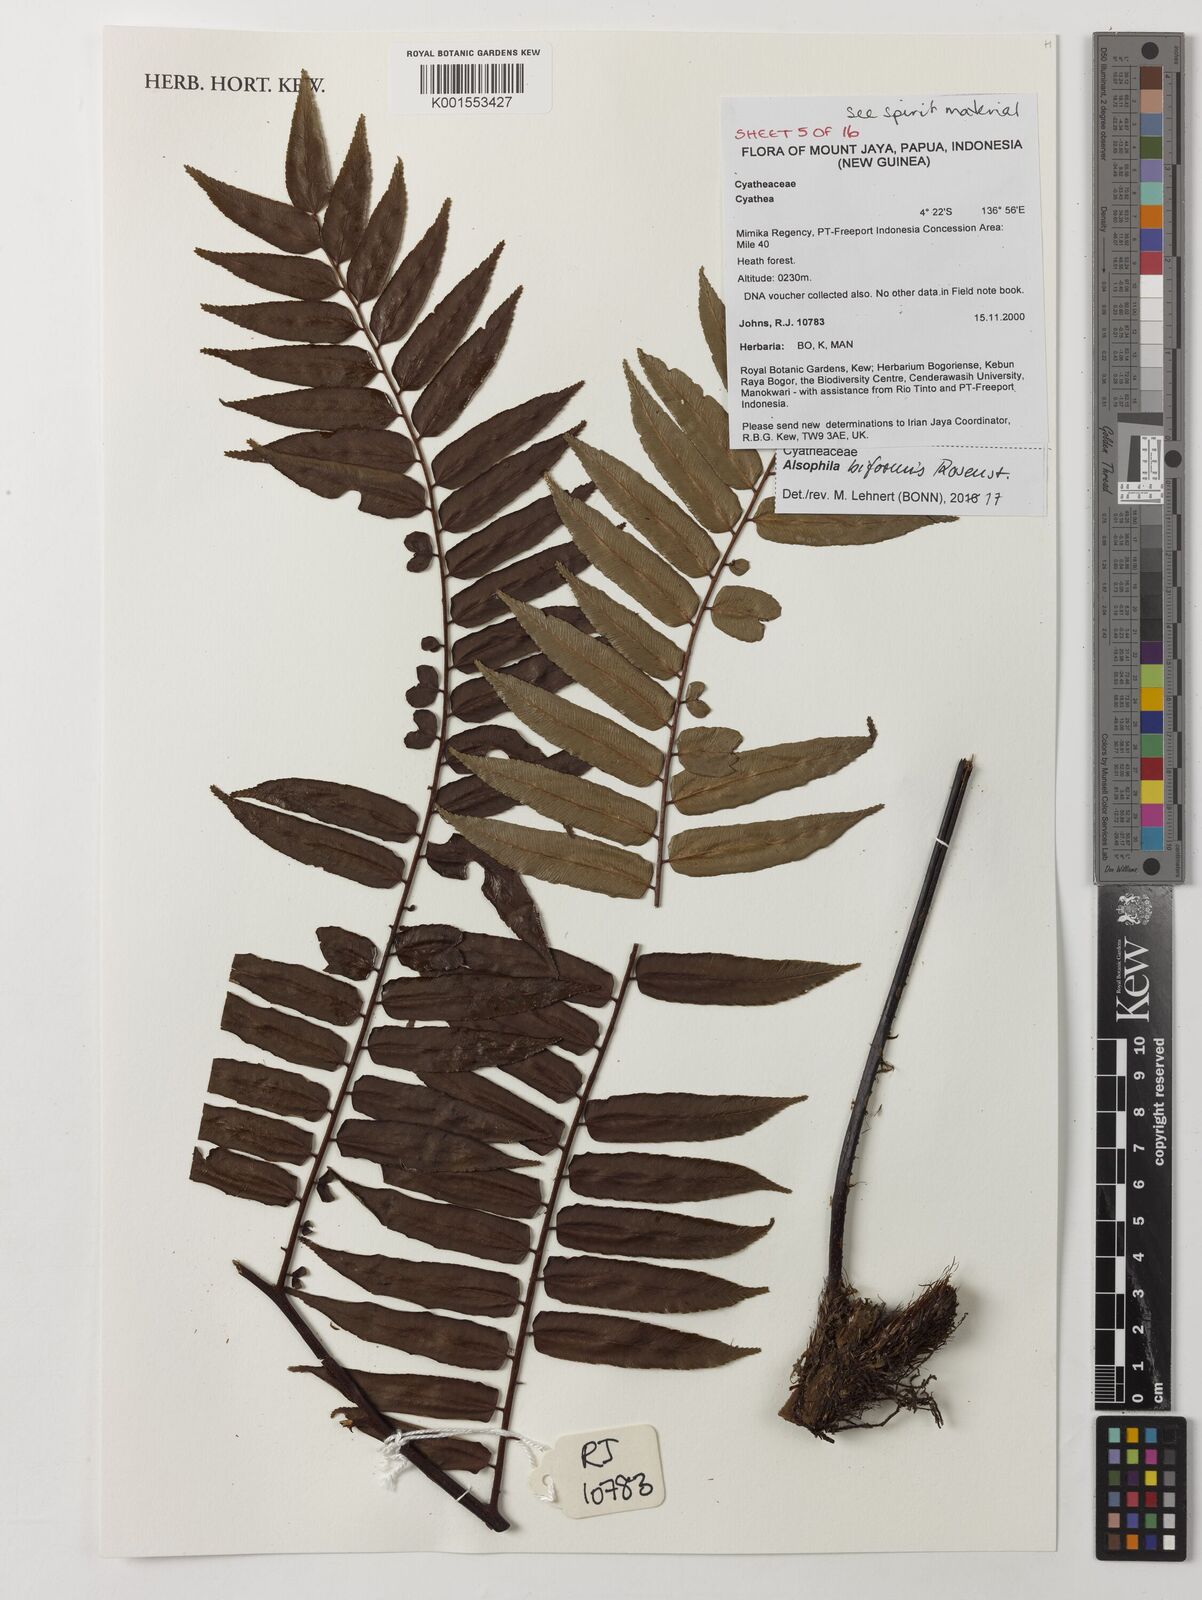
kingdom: Plantae
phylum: Tracheophyta
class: Polypodiopsida
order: Cyatheales
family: Cyatheaceae
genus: Gymnosphaera
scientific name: Gymnosphaera biformis
